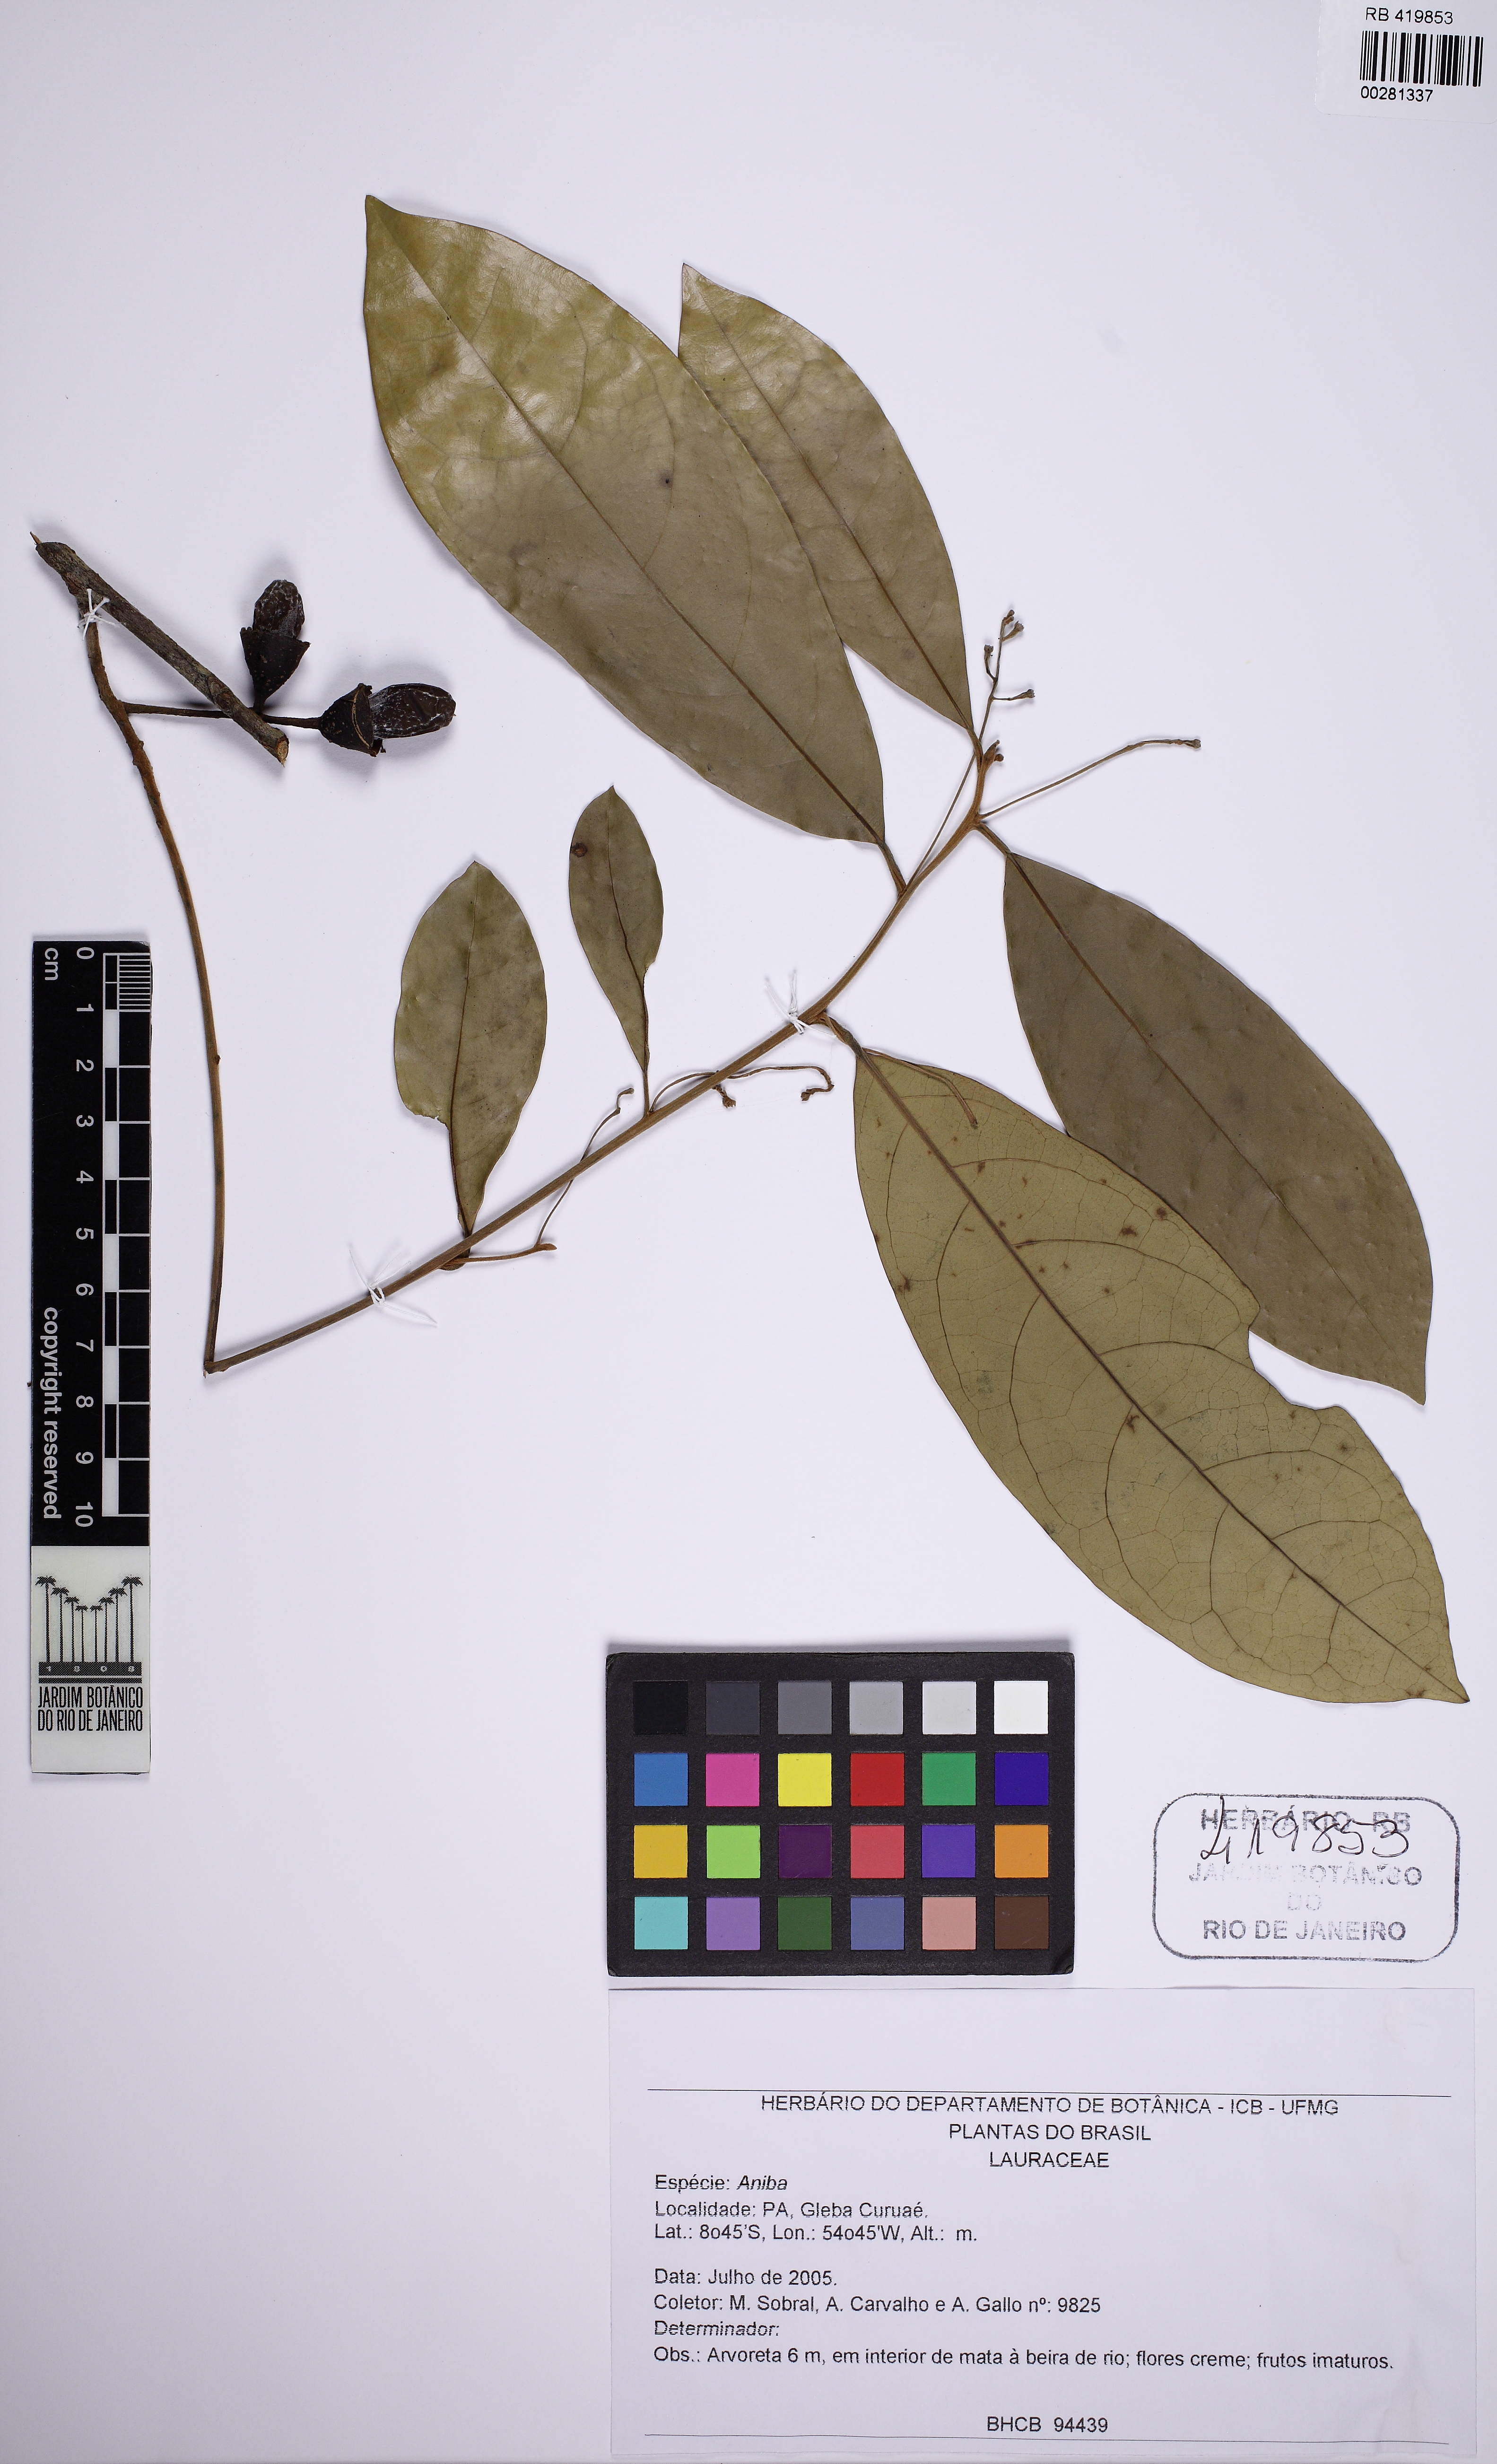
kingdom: Plantae
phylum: Tracheophyta
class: Magnoliopsida
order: Laurales
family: Lauraceae
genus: Aniba
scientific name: Aniba
